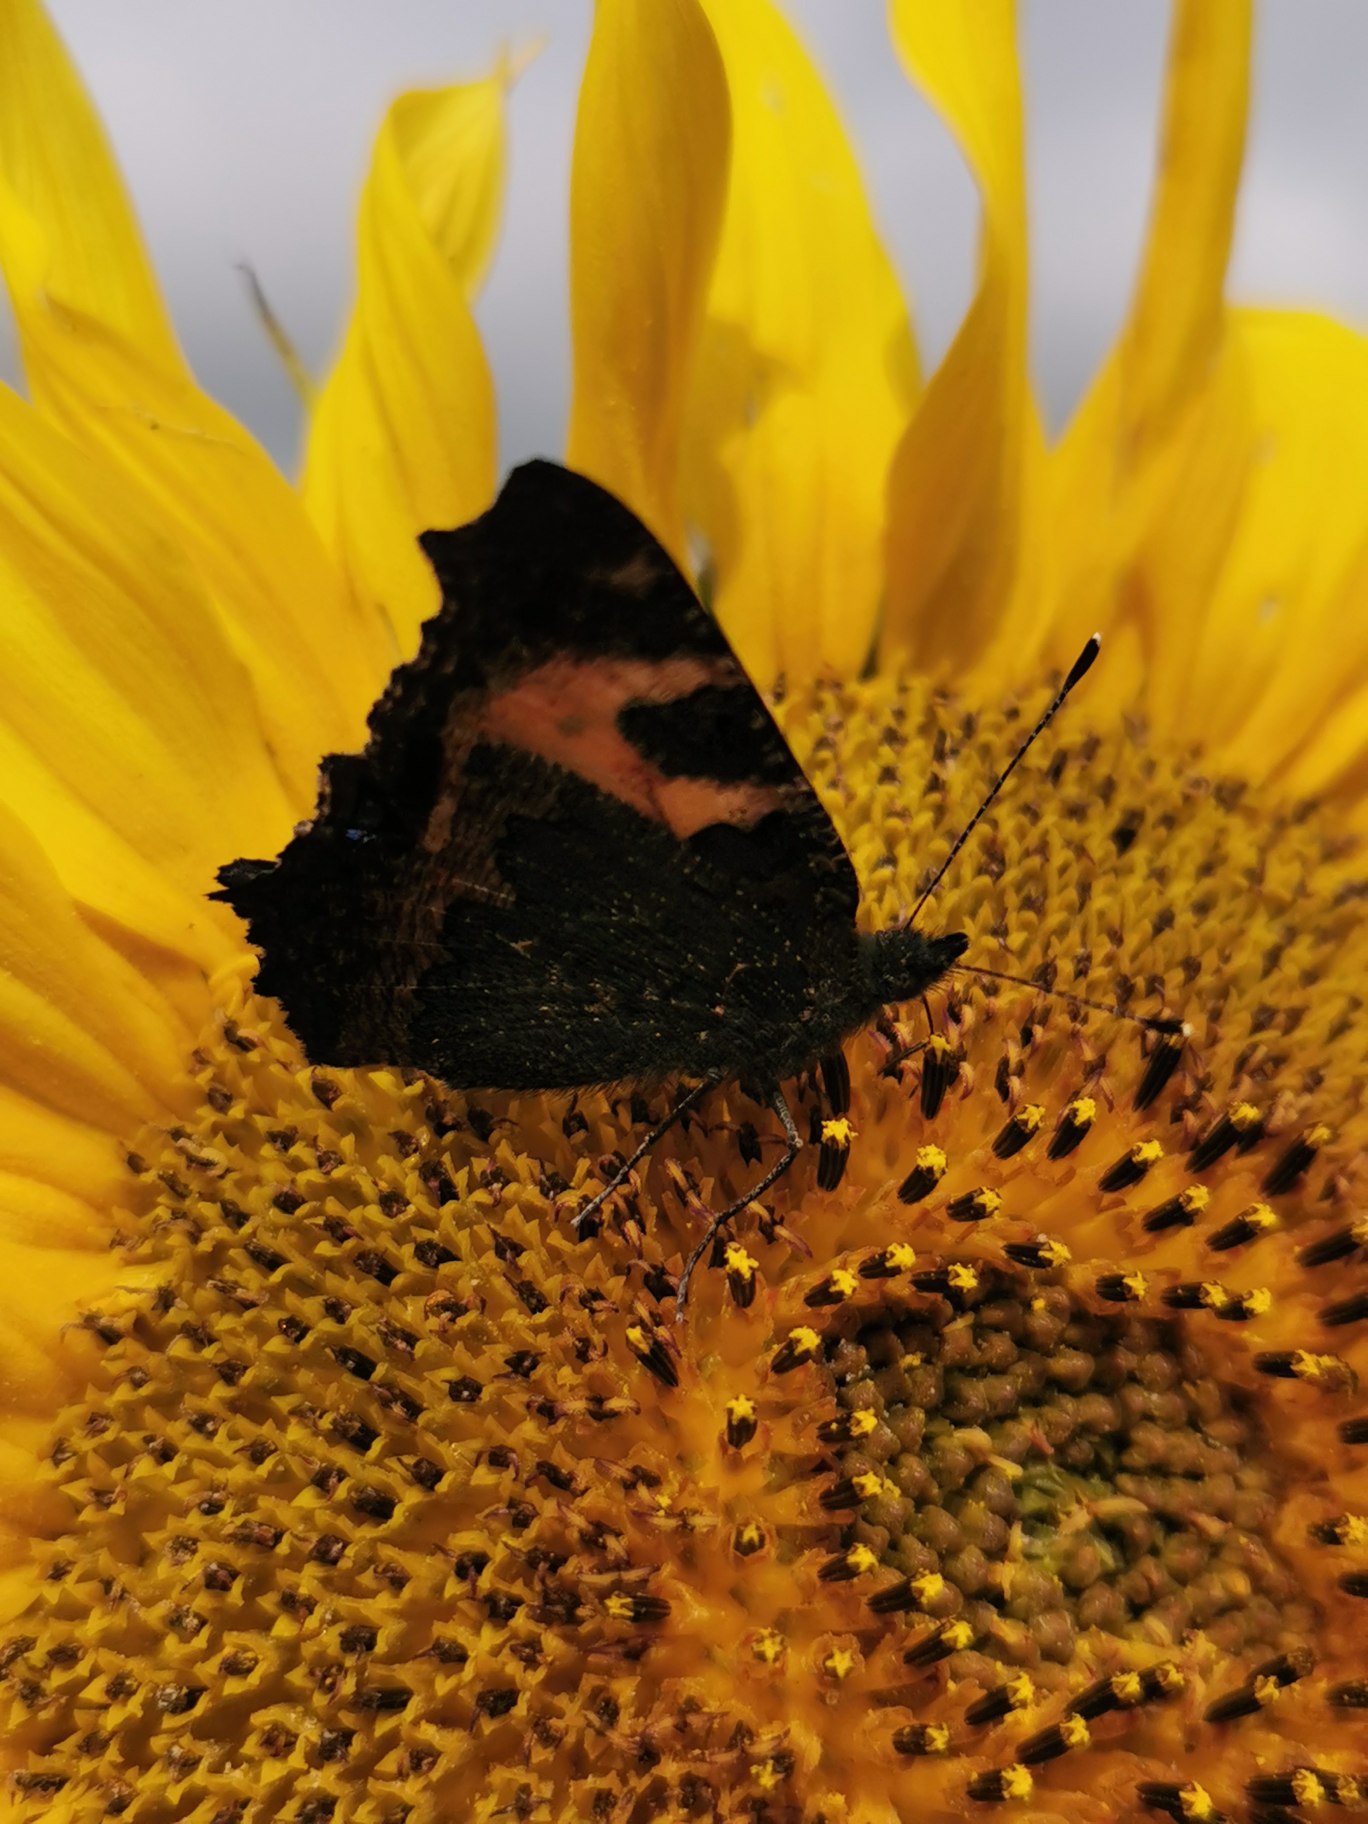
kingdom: Animalia
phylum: Arthropoda
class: Insecta
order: Lepidoptera
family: Nymphalidae
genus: Aglais
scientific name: Aglais urticae
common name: Nældens takvinge
